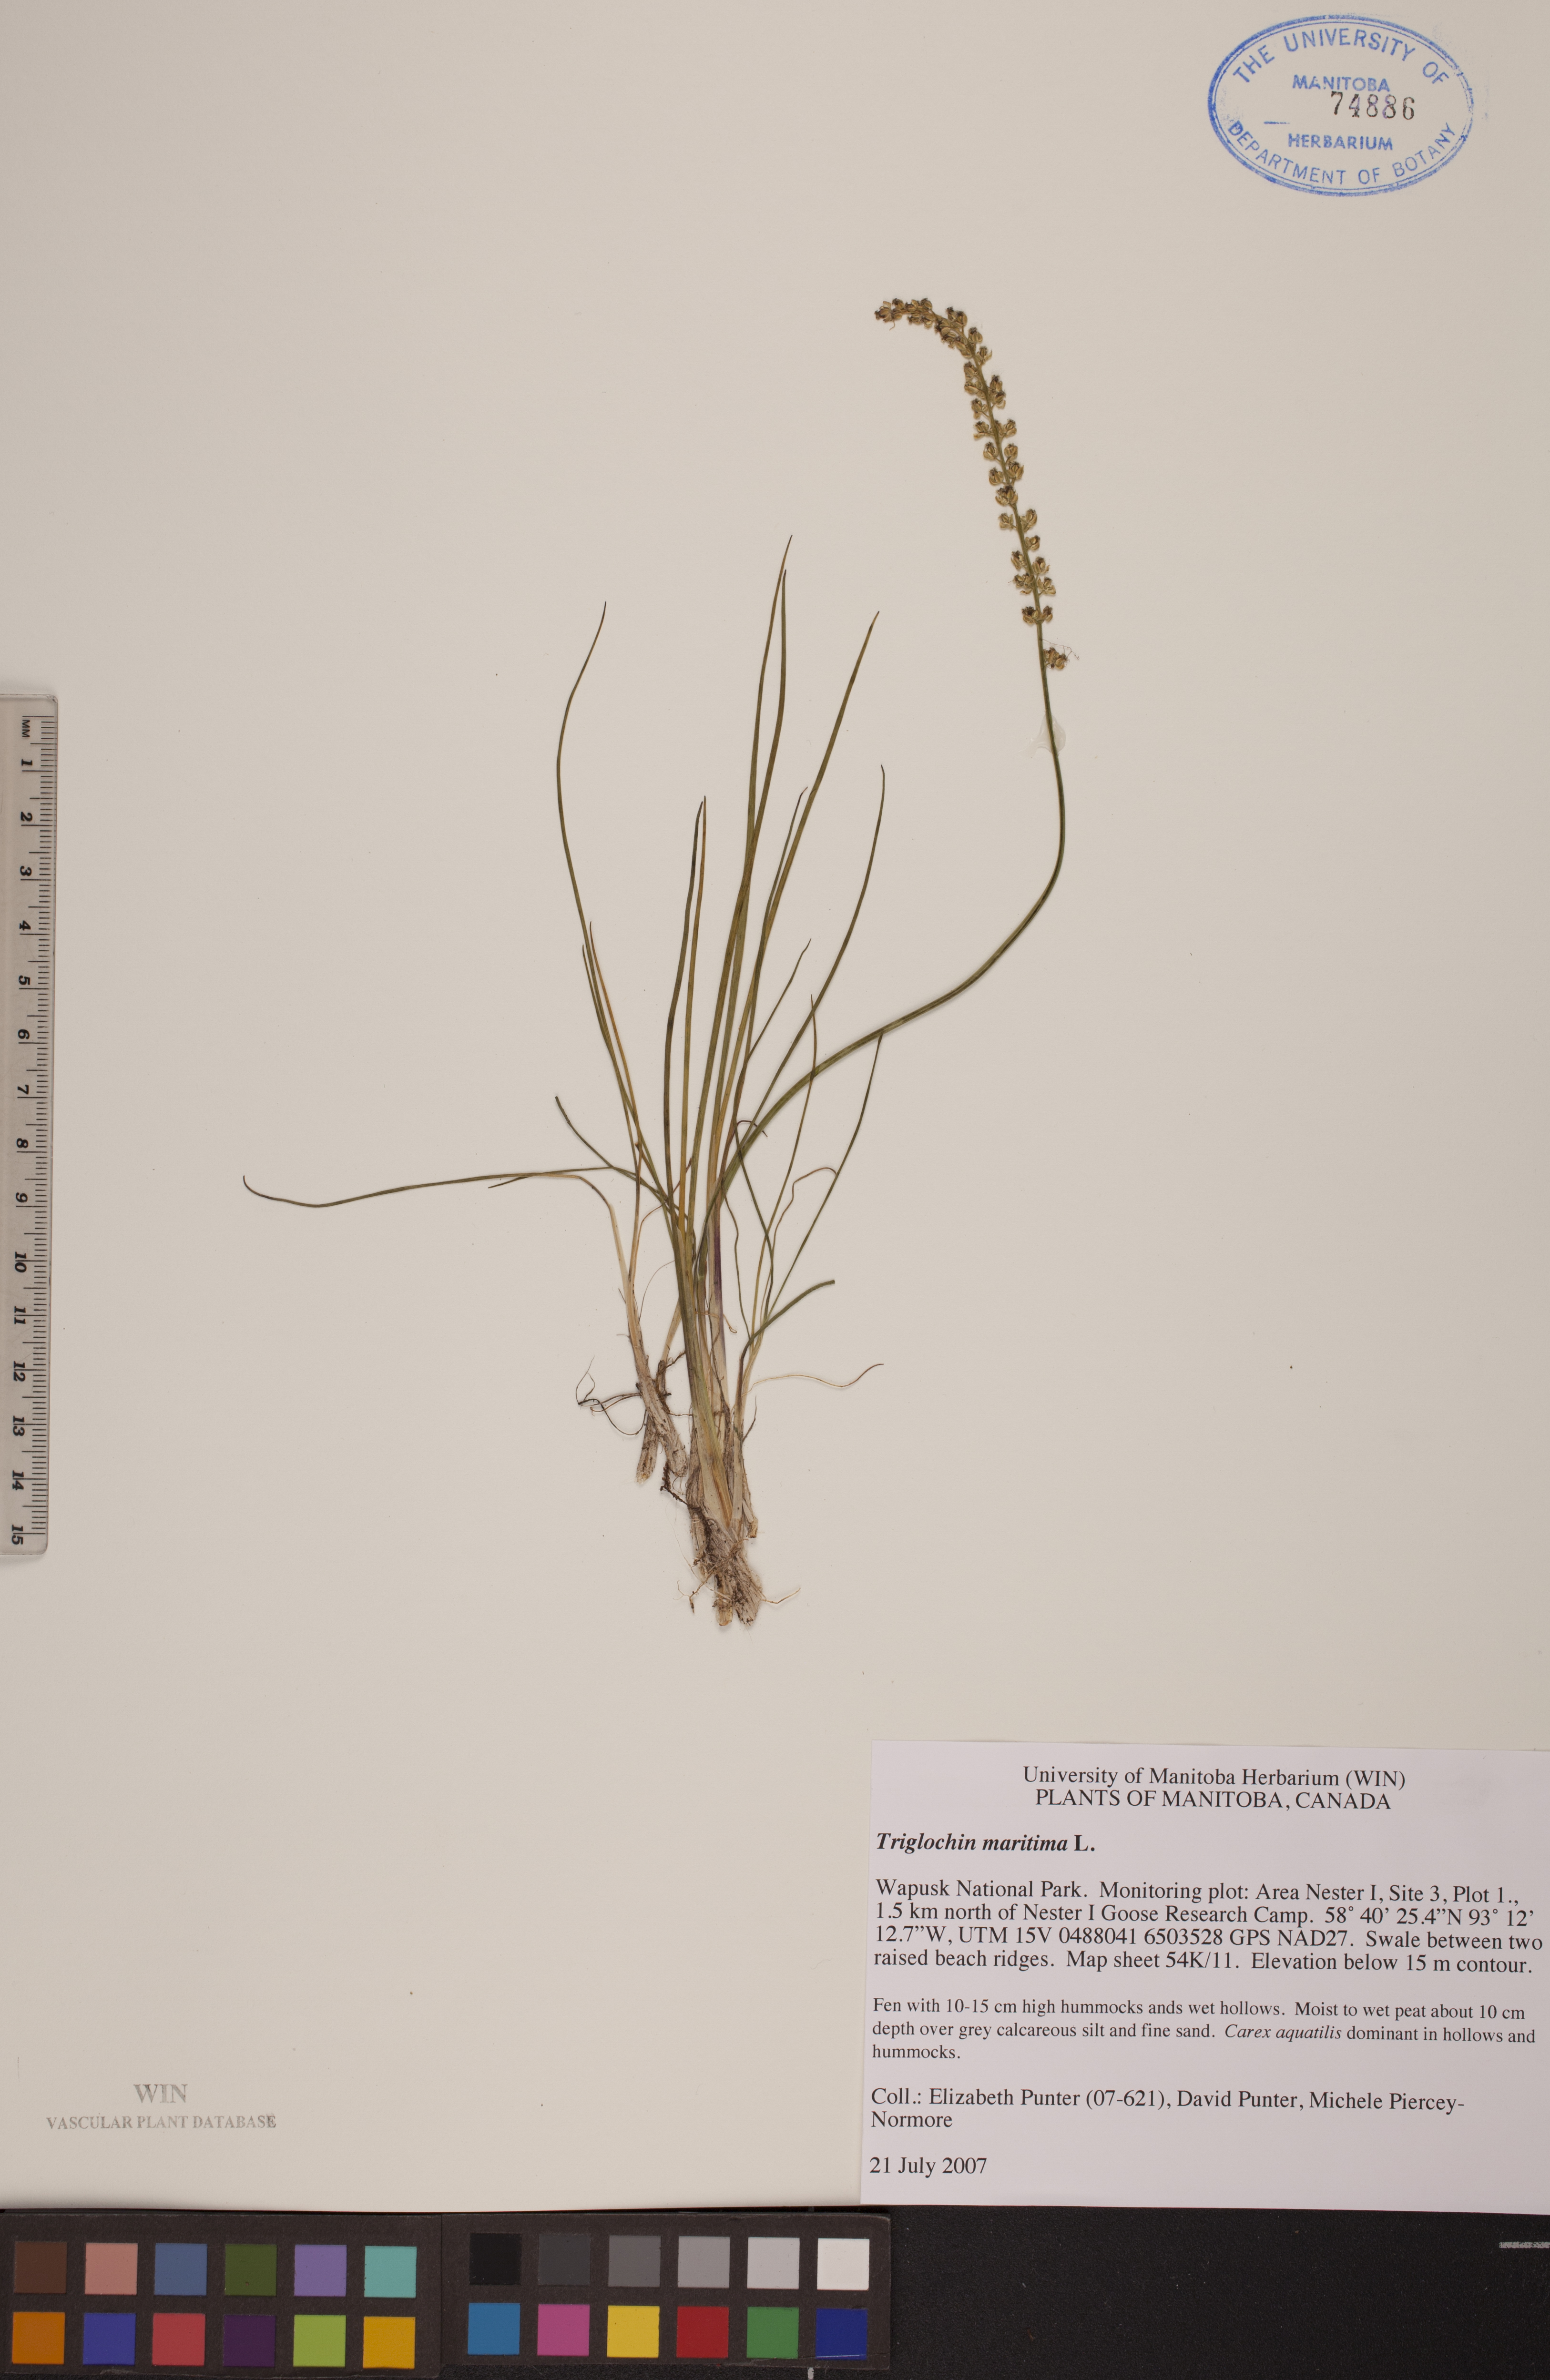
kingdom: Plantae
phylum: Tracheophyta
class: Liliopsida
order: Alismatales
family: Juncaginaceae
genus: Triglochin
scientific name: Triglochin maritima
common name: Sea arrowgrass
